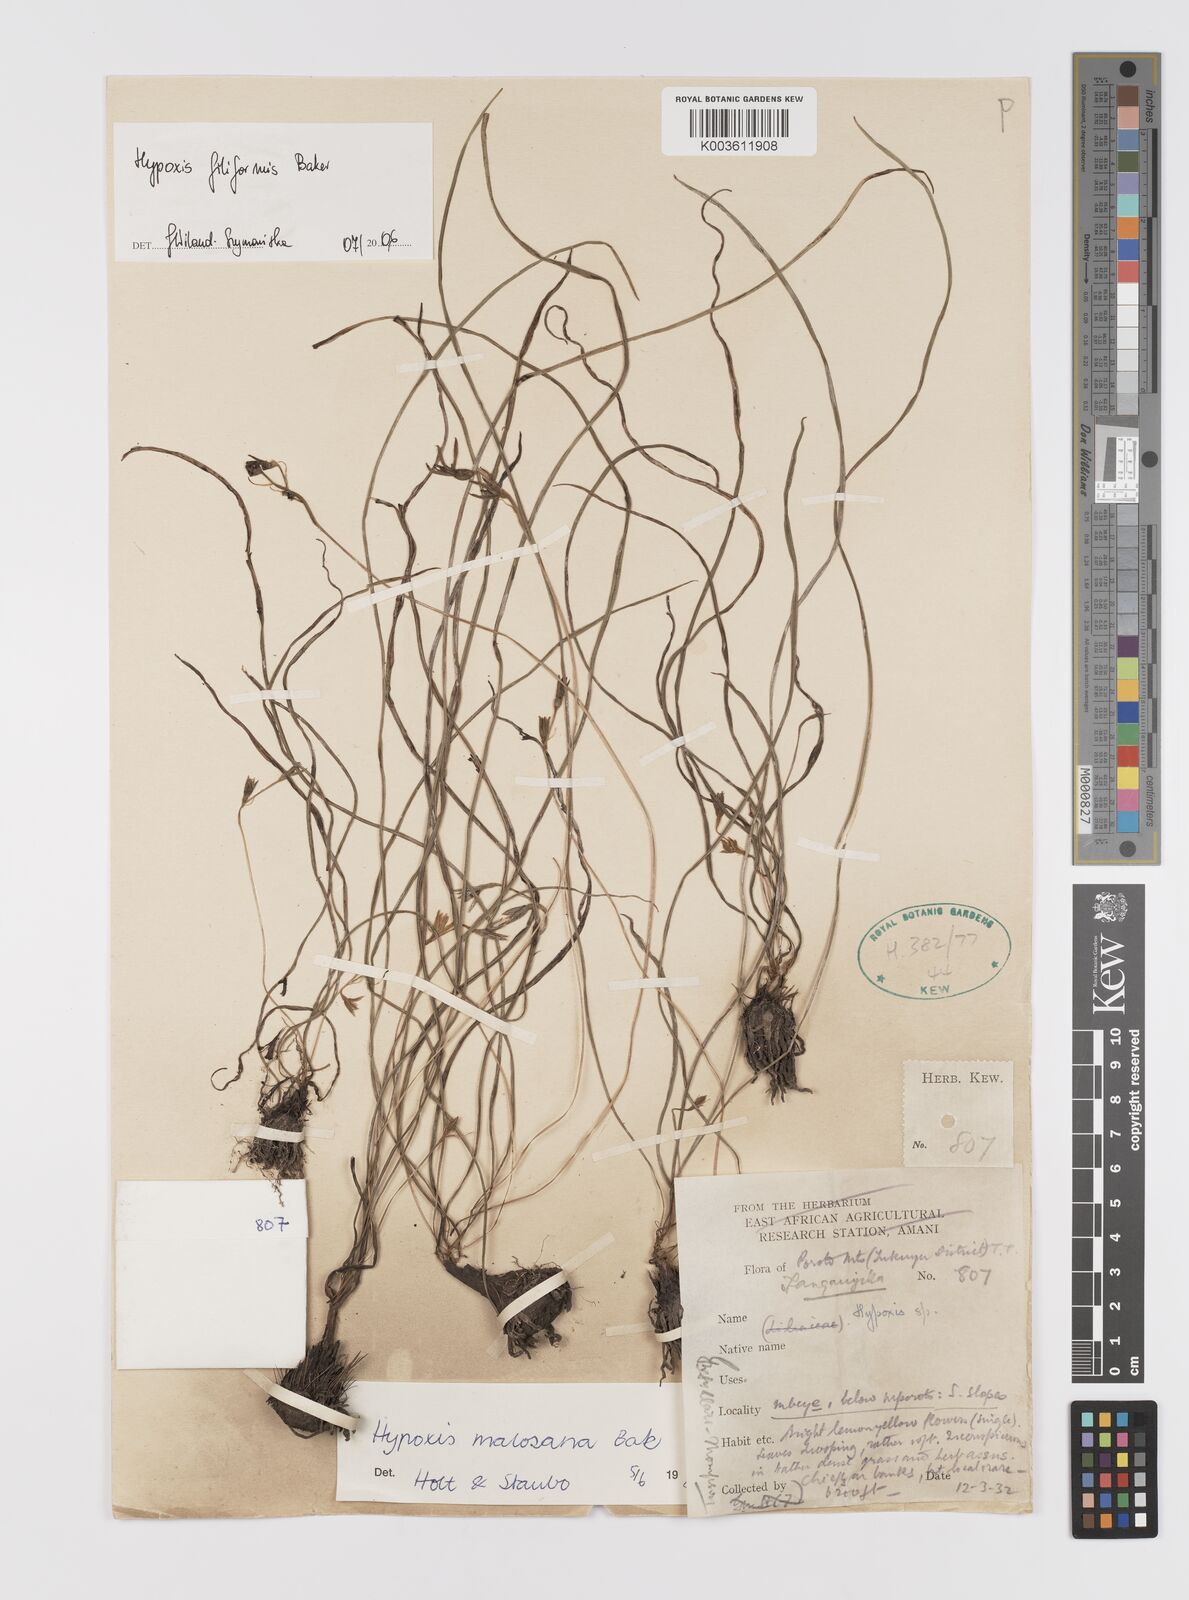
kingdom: Plantae
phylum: Tracheophyta
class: Liliopsida
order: Asparagales
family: Hypoxidaceae
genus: Hypoxis
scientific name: Hypoxis filiformis
